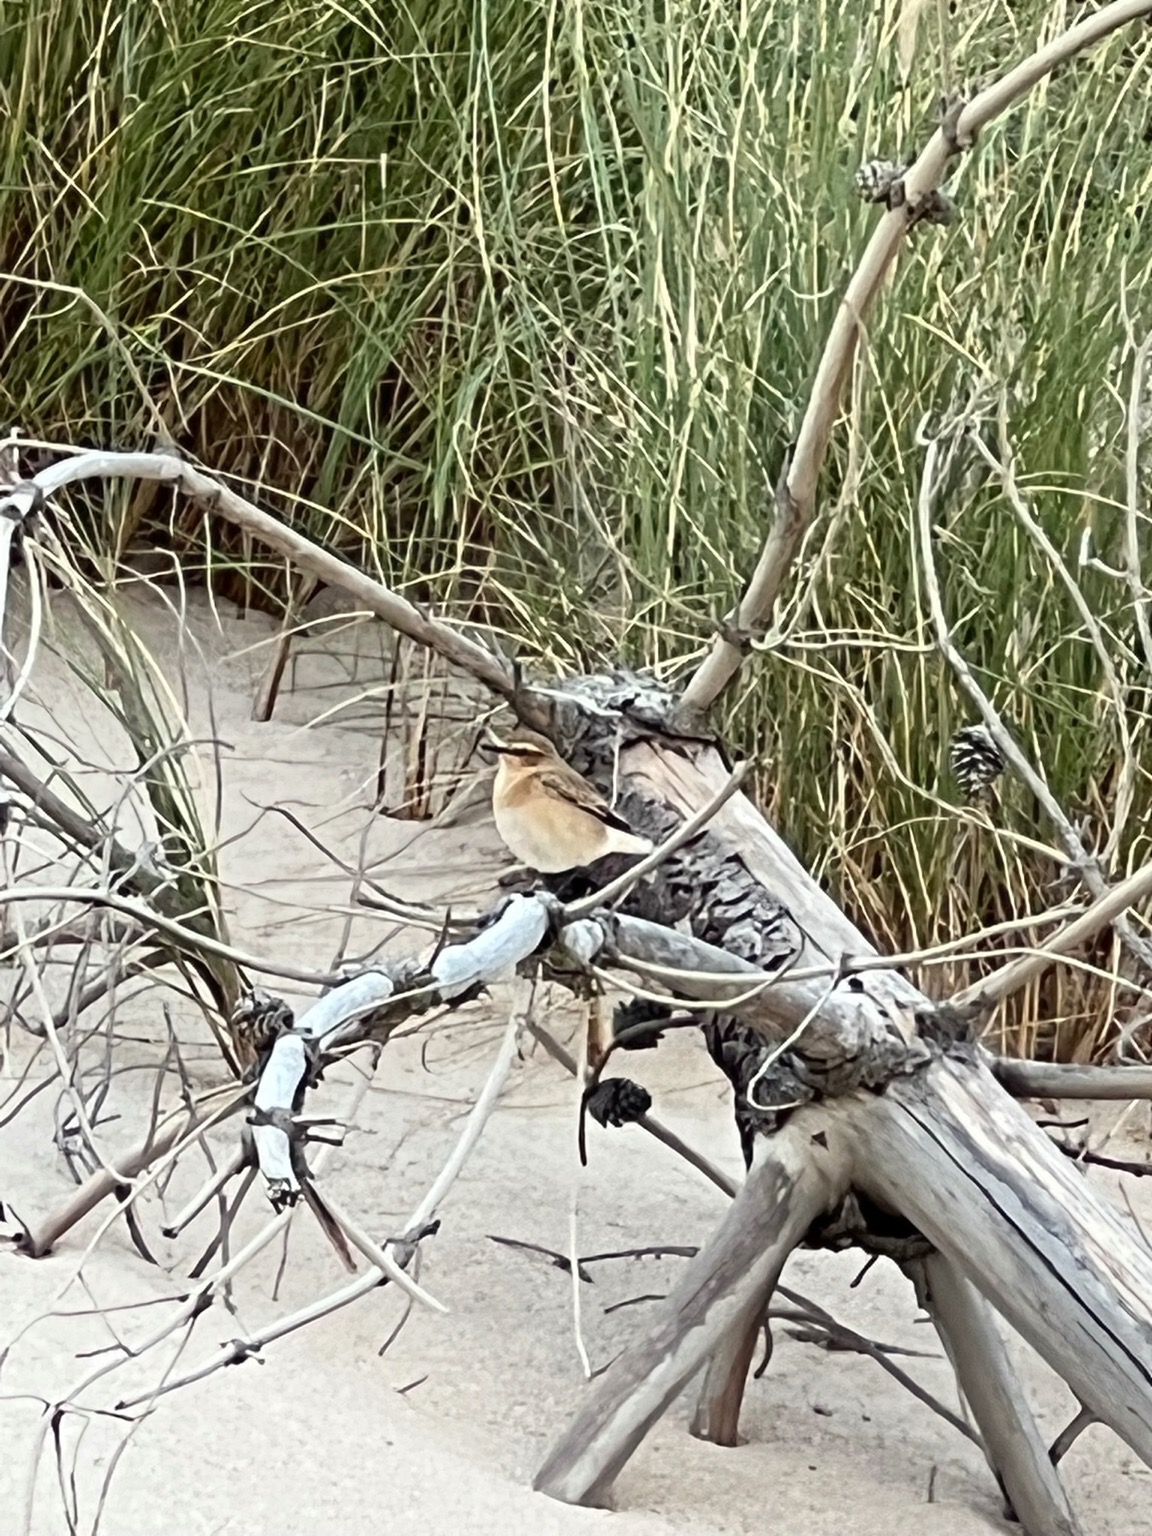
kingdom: Animalia
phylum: Chordata
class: Aves
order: Passeriformes
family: Muscicapidae
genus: Oenanthe
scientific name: Oenanthe oenanthe
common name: Stenpikker
